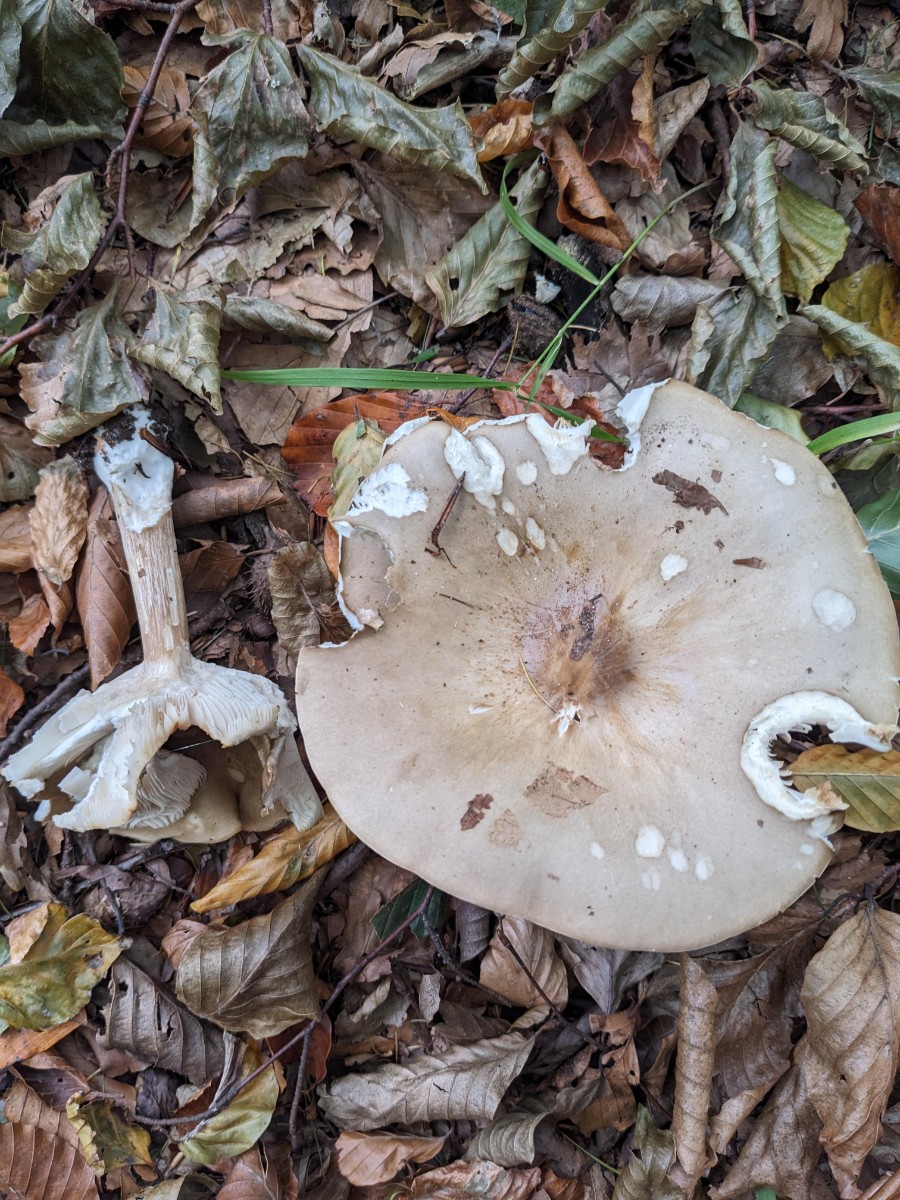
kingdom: Fungi
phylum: Basidiomycota
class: Agaricomycetes
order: Agaricales
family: Tricholomataceae
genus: Melanoleuca
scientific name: Melanoleuca grammopodia
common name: stribestokket munkehat
